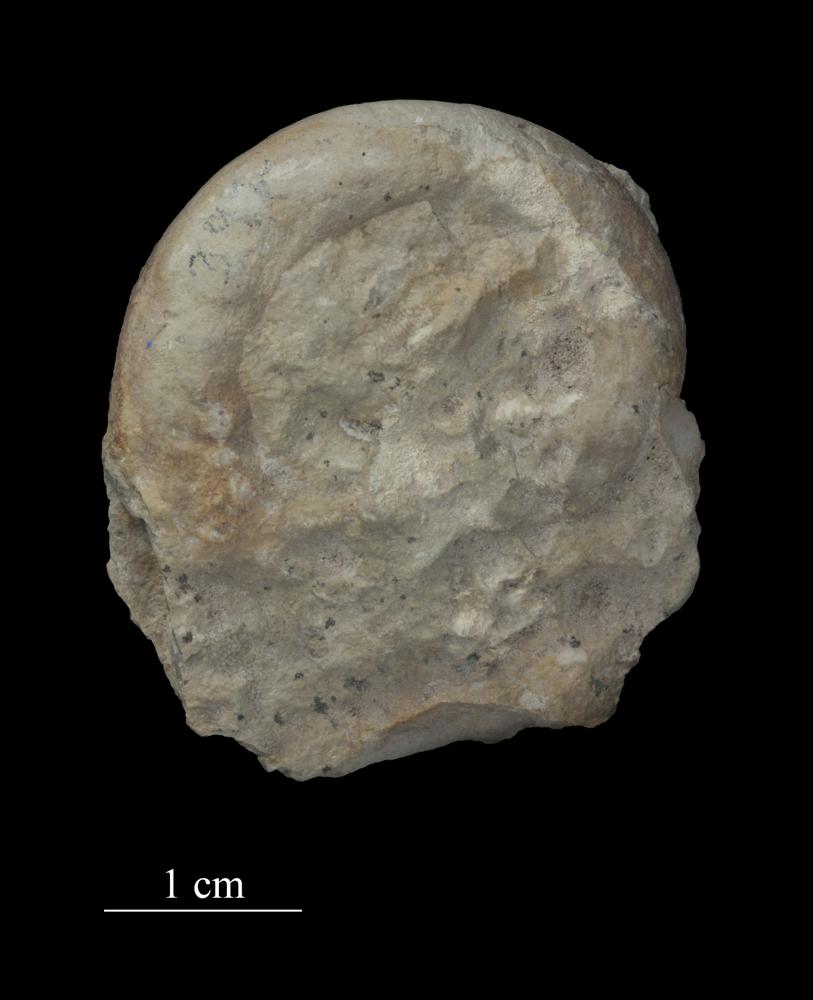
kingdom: Animalia
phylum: Mollusca
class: Gastropoda
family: Lesueurillidae
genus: Mestoronema
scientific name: Mestoronema Euomphalus marginalis
